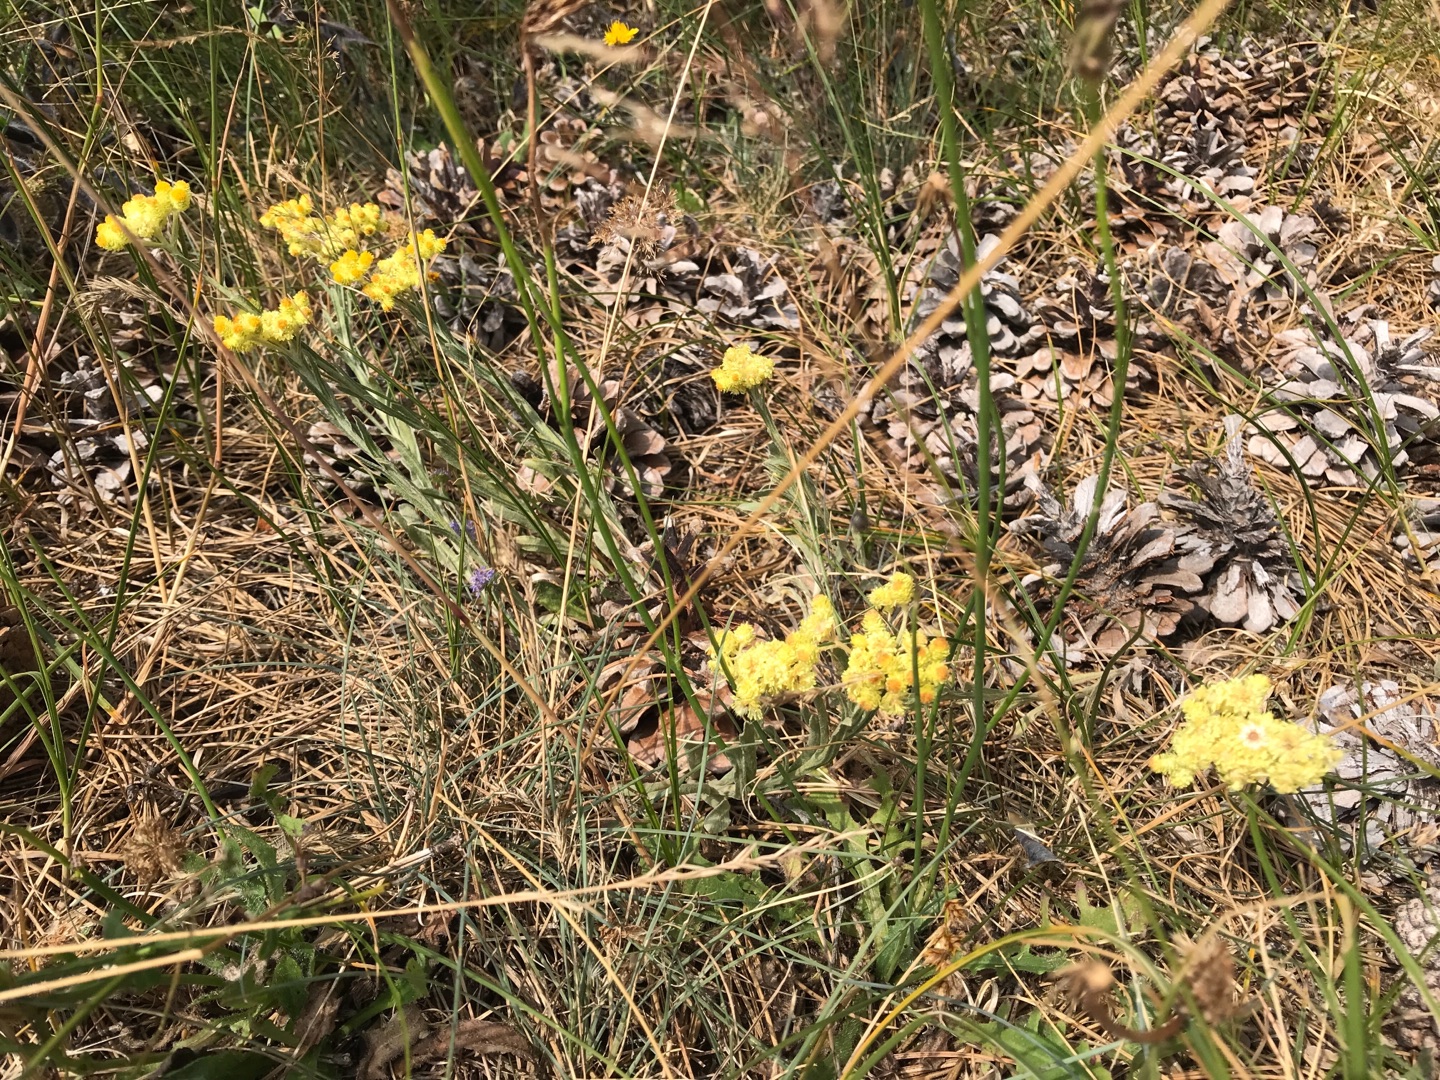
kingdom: Plantae
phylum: Tracheophyta
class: Magnoliopsida
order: Asterales
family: Asteraceae
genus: Helichrysum
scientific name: Helichrysum arenarium
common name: Gul evighedsblomst
